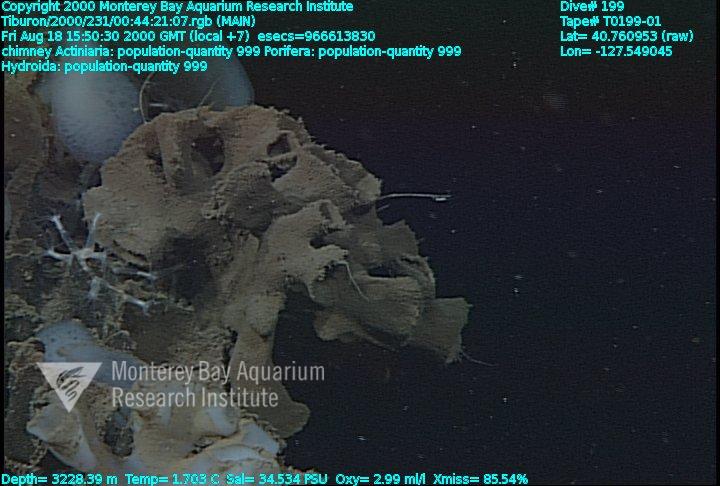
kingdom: Animalia
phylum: Porifera
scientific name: Porifera
